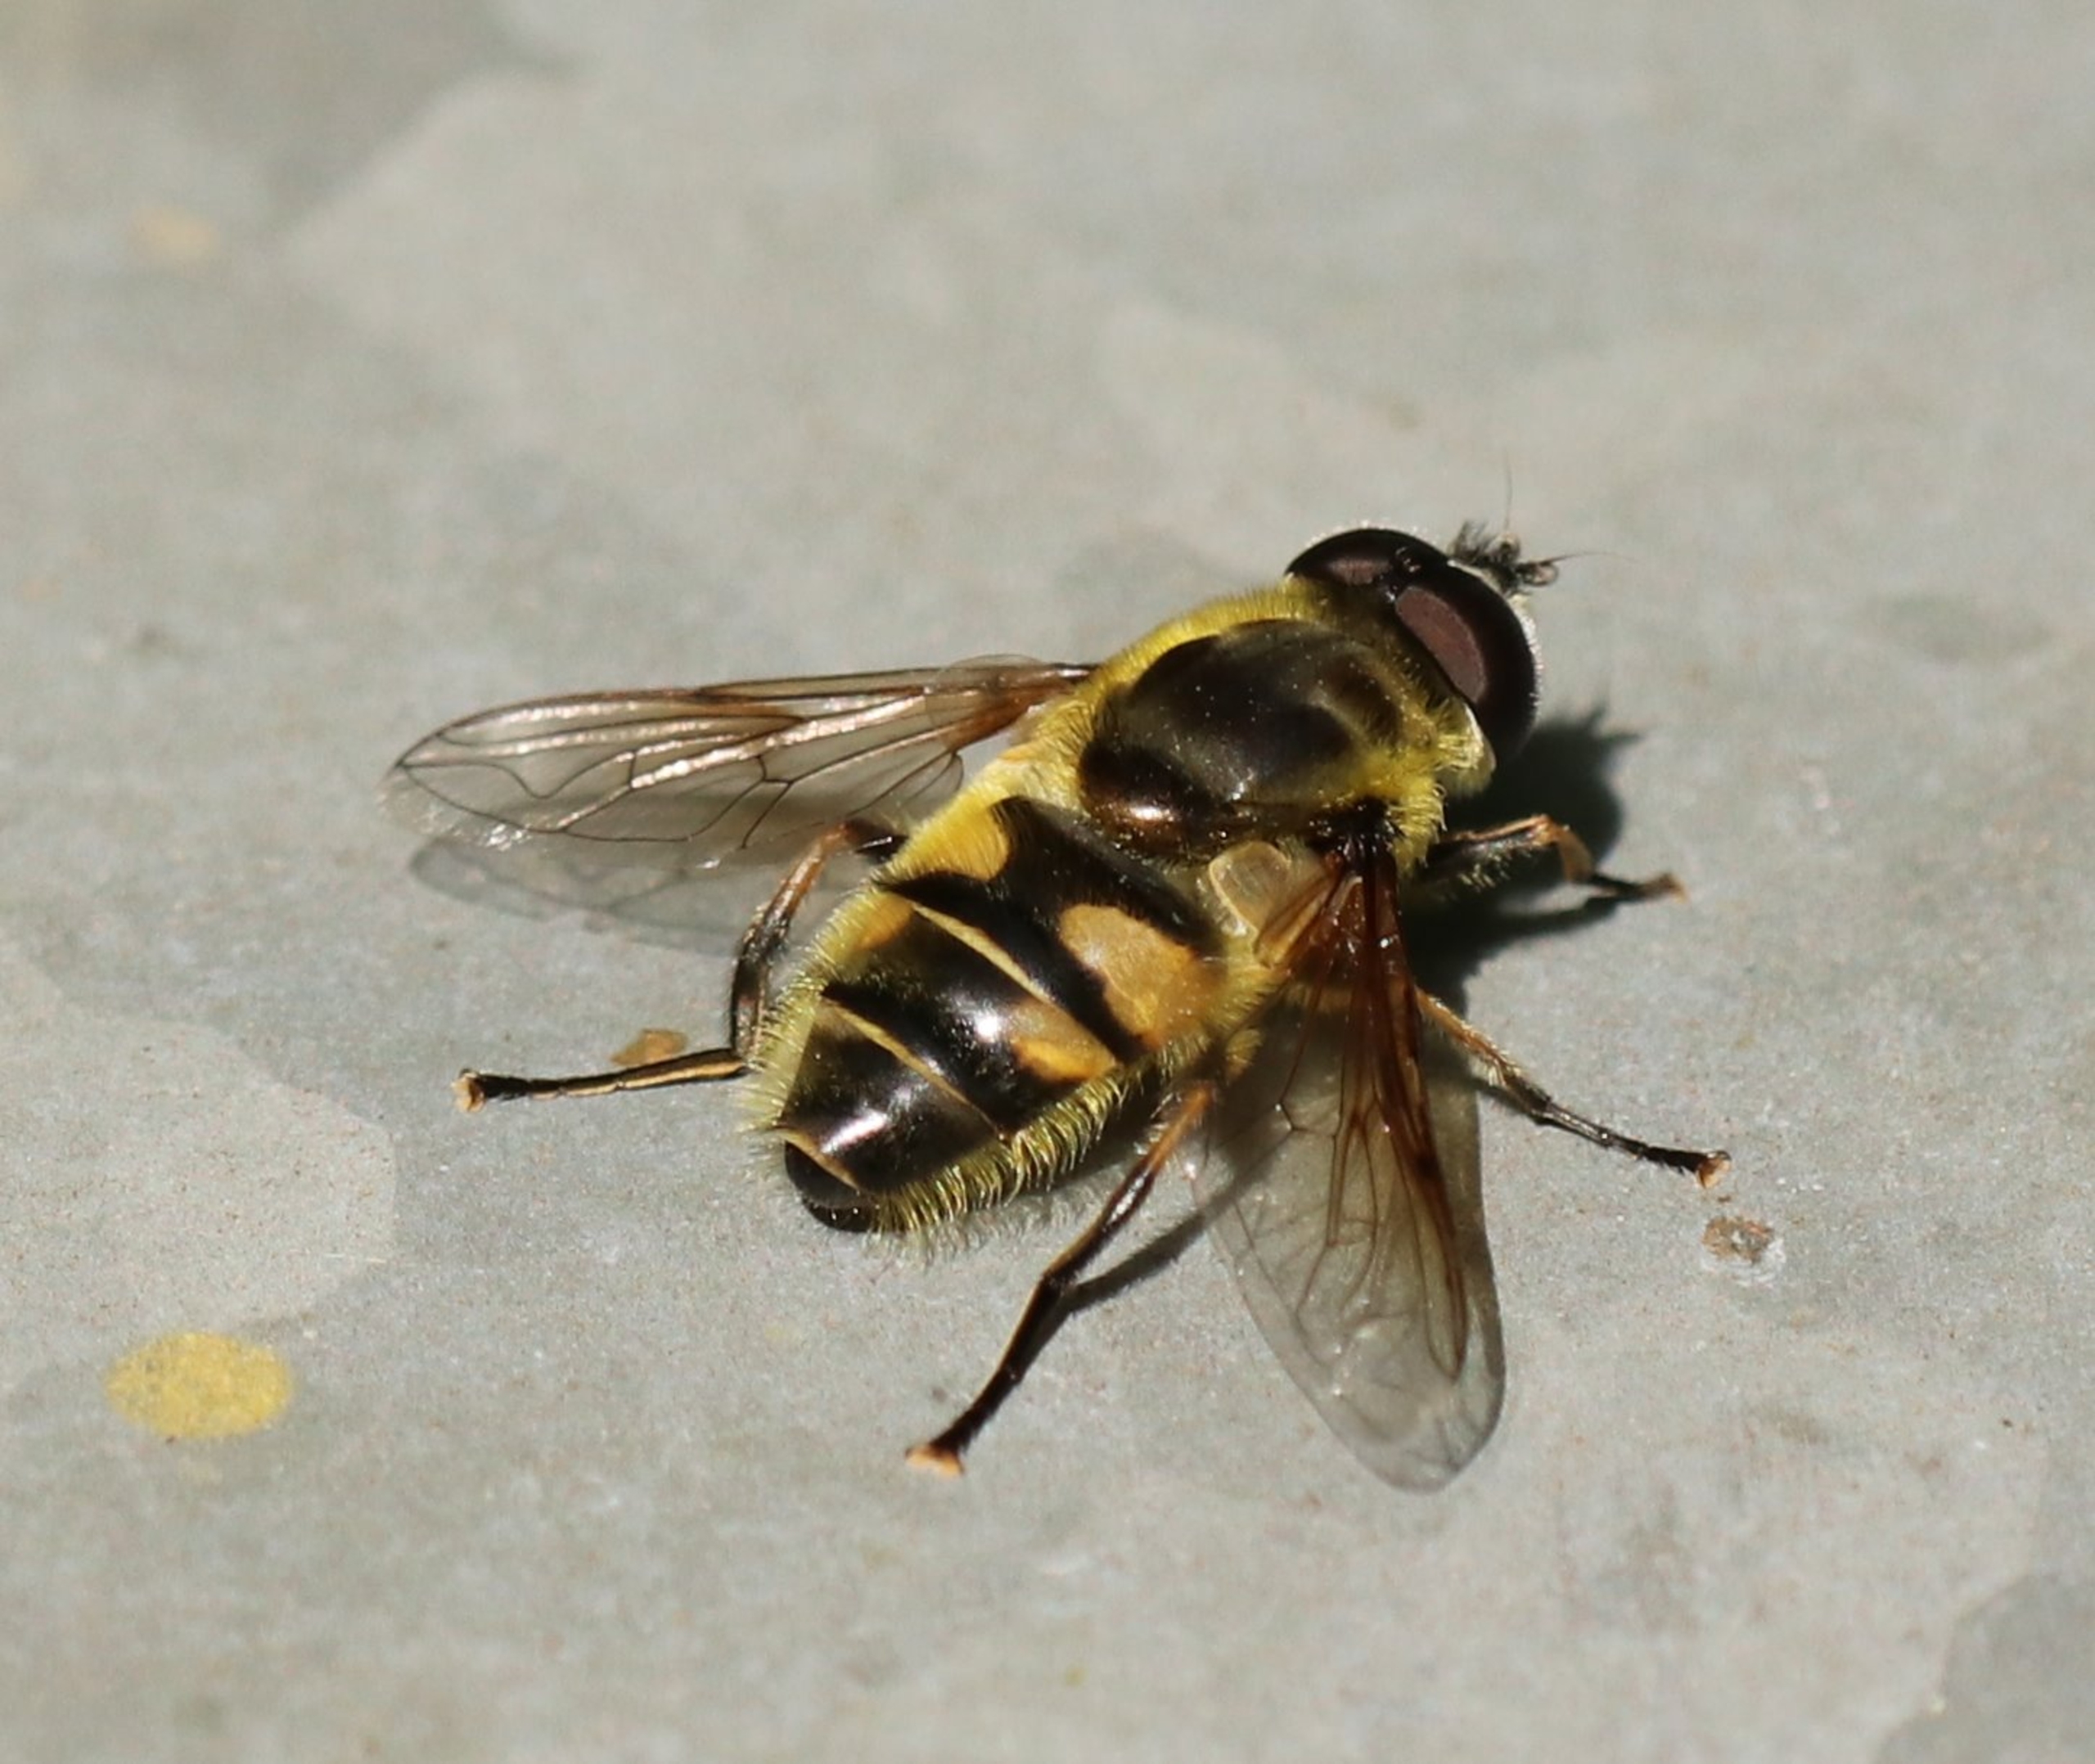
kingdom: Animalia
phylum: Arthropoda
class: Insecta
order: Diptera
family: Syrphidae
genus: Myathropa
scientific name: Myathropa florea
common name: Dødningehoved-svirreflue
